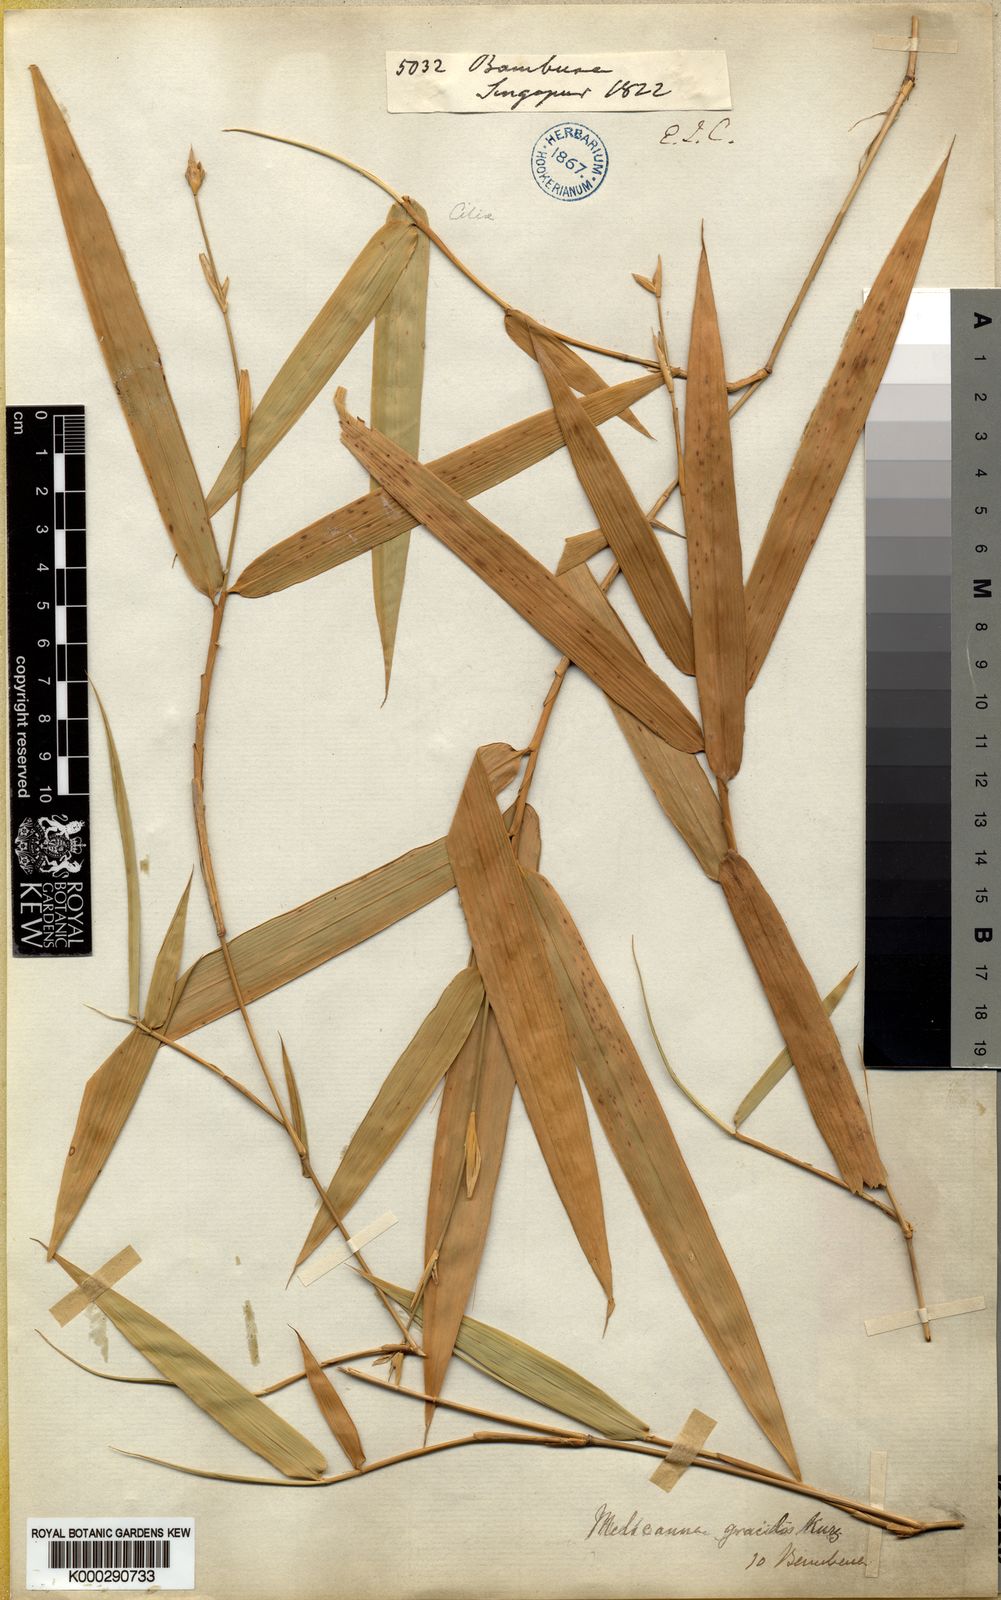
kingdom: Plantae
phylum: Tracheophyta
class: Liliopsida
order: Poales
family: Poaceae
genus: Schizostachyum
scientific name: Schizostachyum gracile
